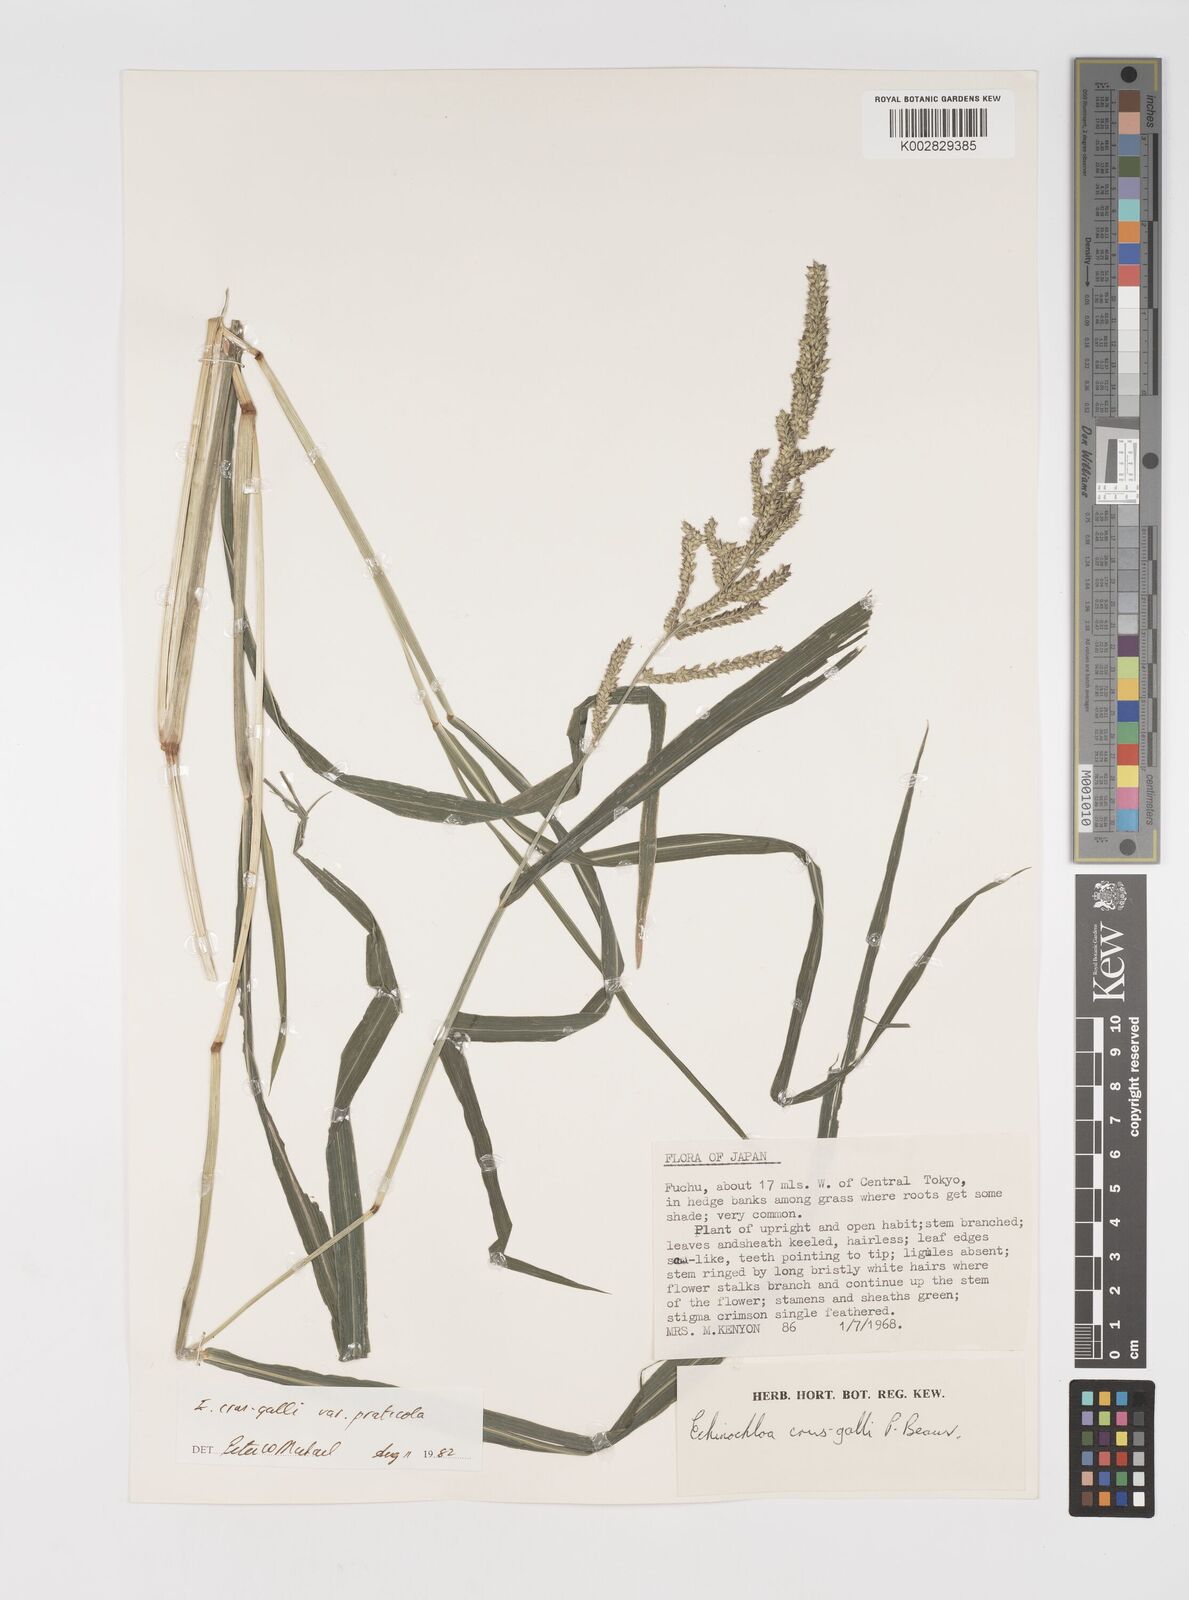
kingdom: Plantae
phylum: Tracheophyta
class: Liliopsida
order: Poales
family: Poaceae
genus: Echinochloa
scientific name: Echinochloa crus-galli
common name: Cockspur
